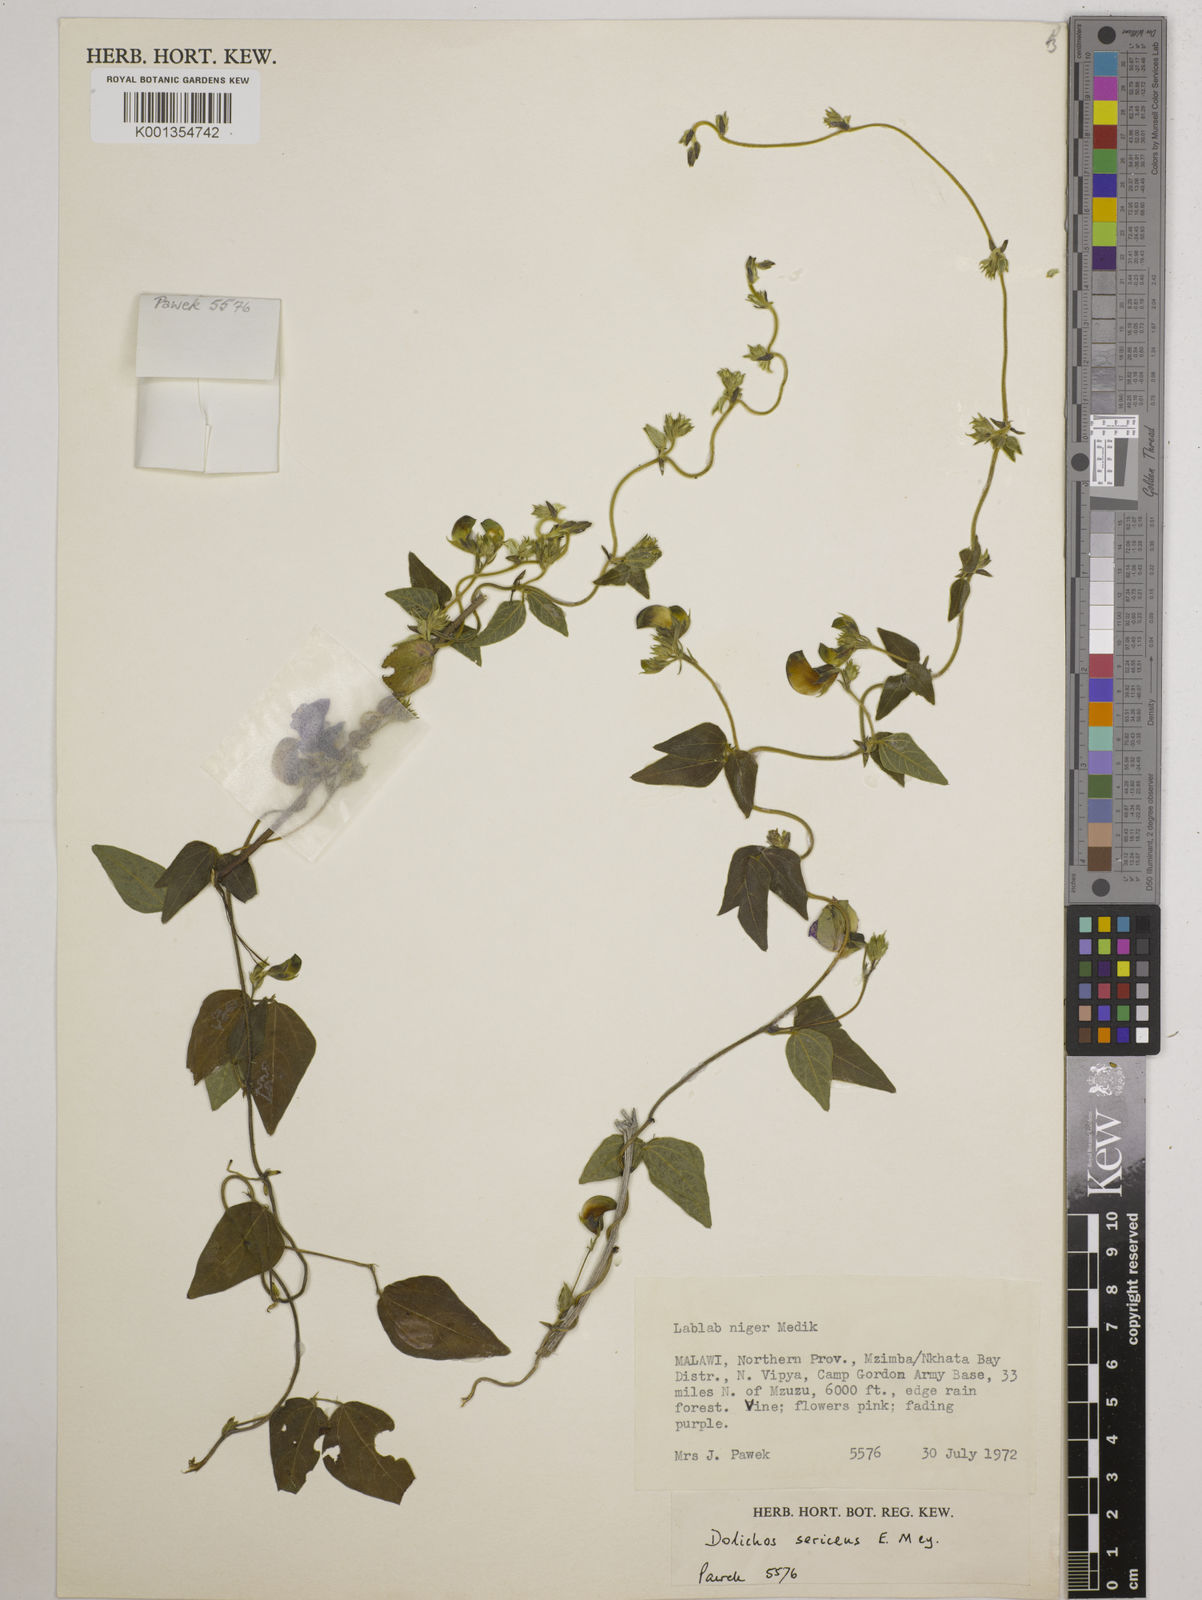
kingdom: Plantae
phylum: Tracheophyta
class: Magnoliopsida
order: Fabales
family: Fabaceae
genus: Dolichos
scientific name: Dolichos
